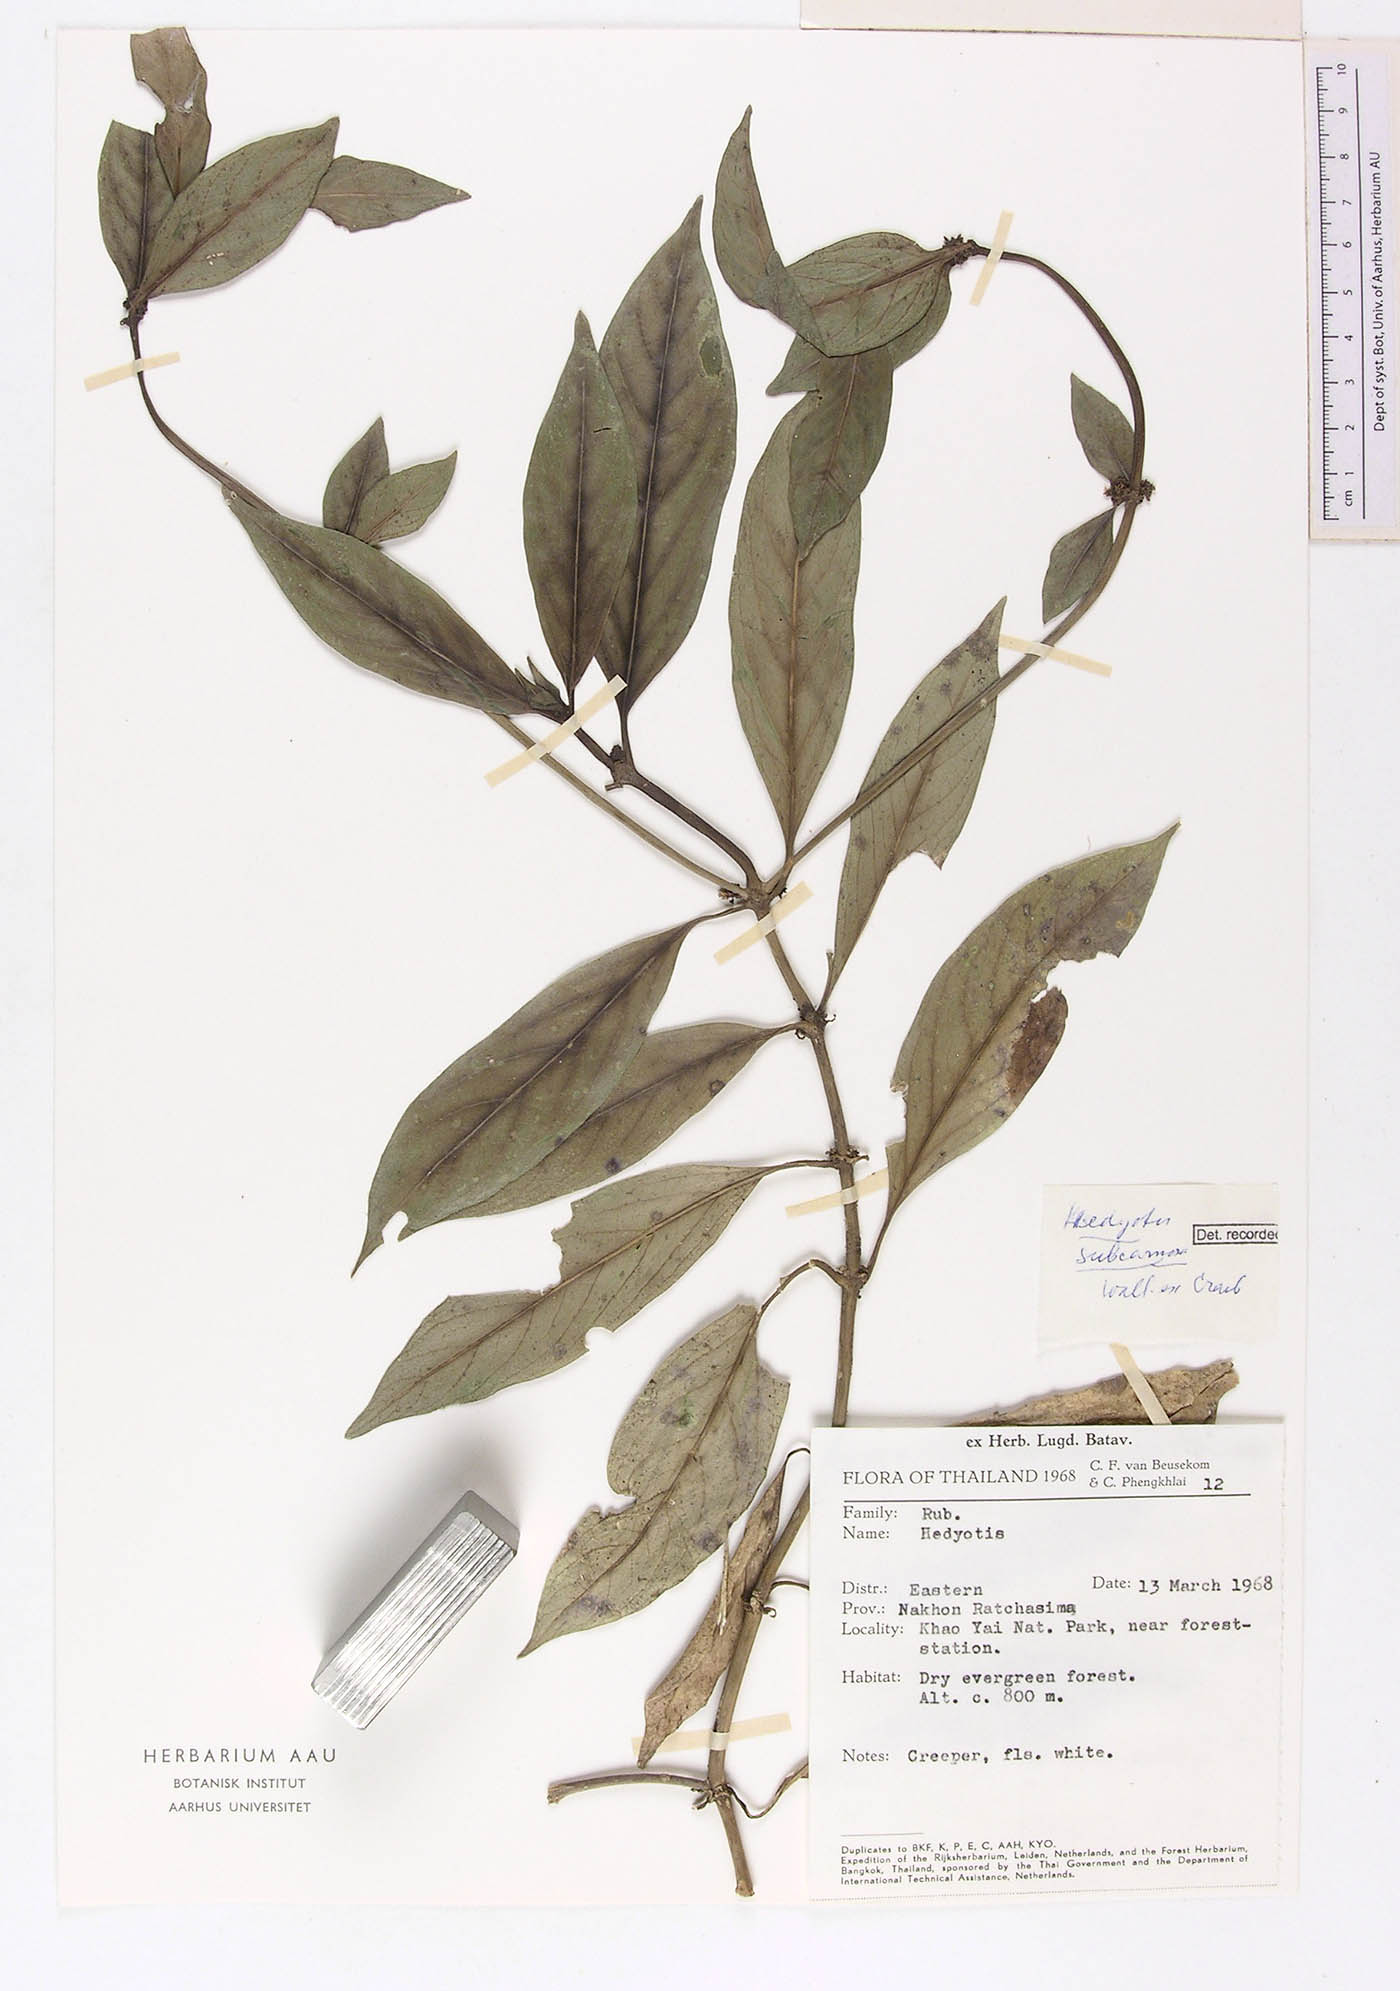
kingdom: Plantae
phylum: Tracheophyta
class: Magnoliopsida
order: Gentianales
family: Rubiaceae
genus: Hedyotis
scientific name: Hedyotis subcarnosa
